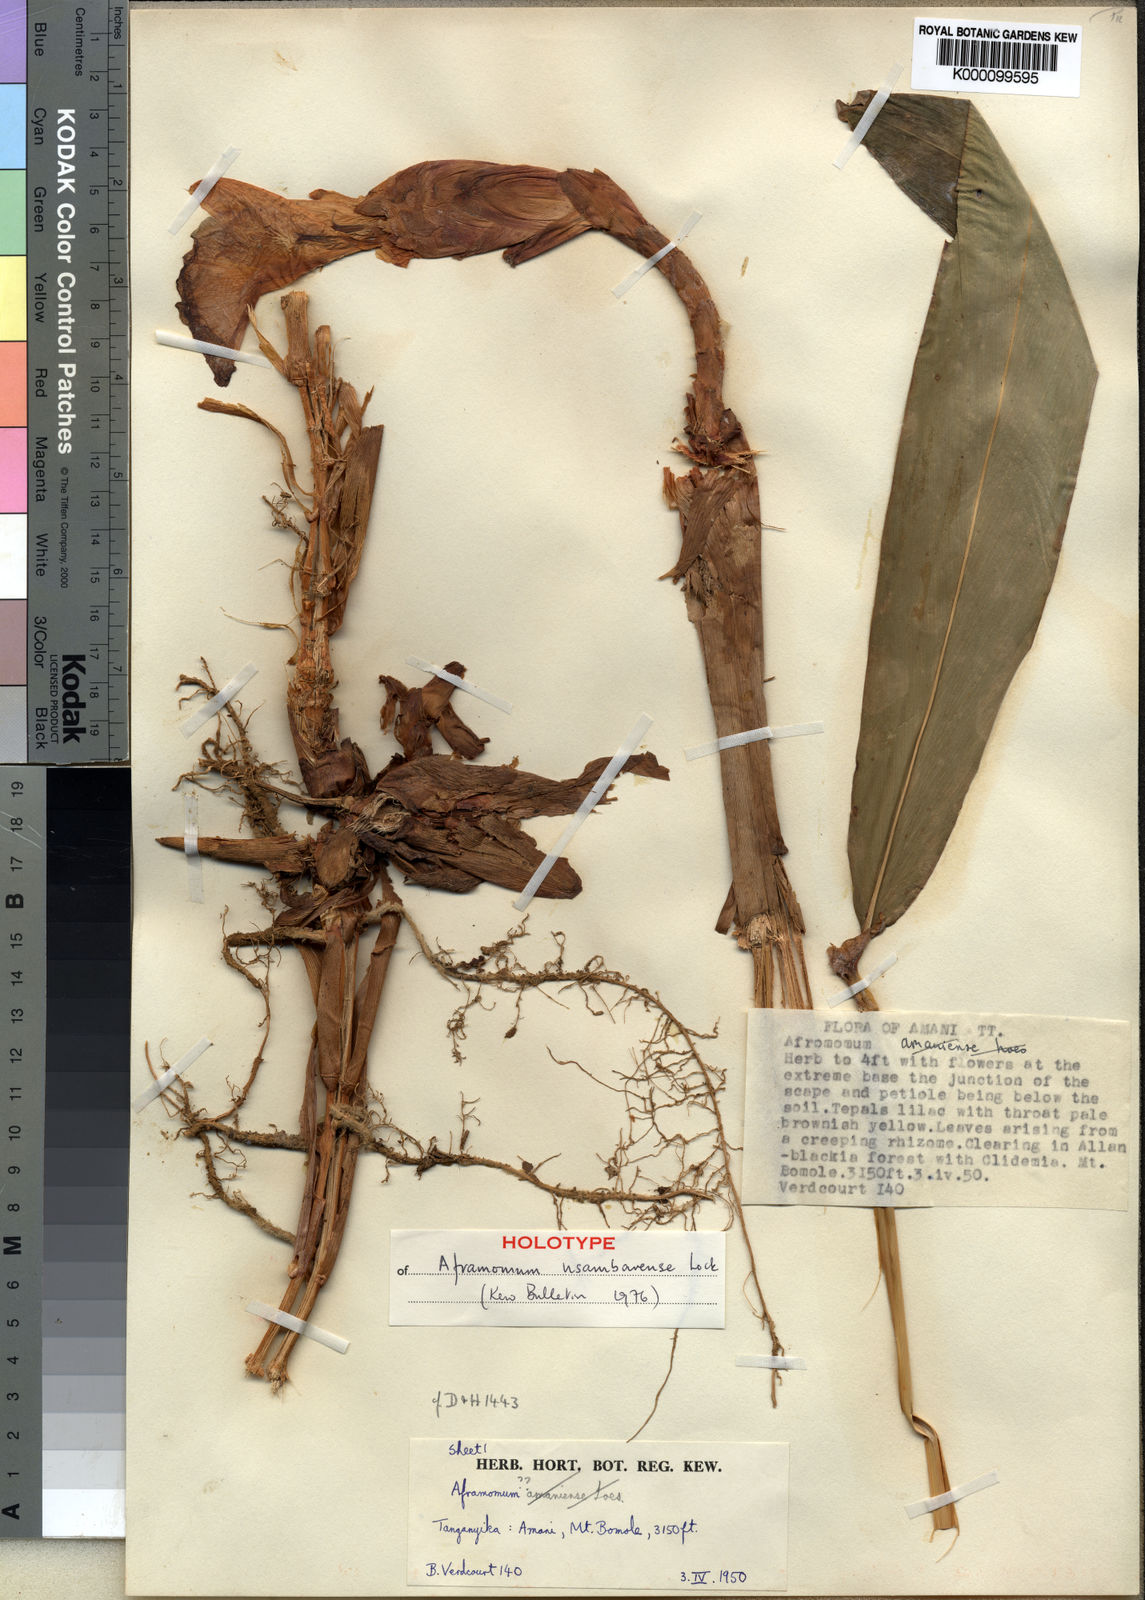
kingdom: Plantae
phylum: Tracheophyta
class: Liliopsida
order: Zingiberales
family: Zingiberaceae
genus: Aframomum
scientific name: Aframomum corrorima
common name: Ethiopian cardamom
